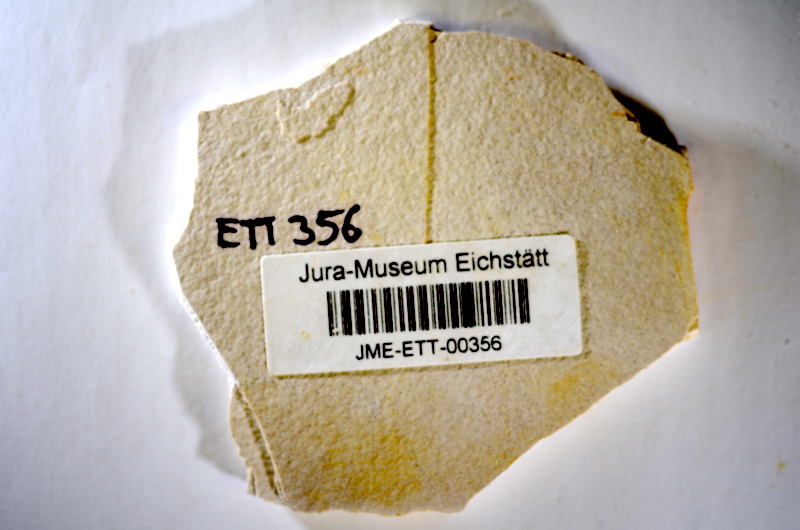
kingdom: Animalia
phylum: Chordata
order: Salmoniformes
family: Orthogonikleithridae
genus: Orthogonikleithrus
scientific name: Orthogonikleithrus hoelli
